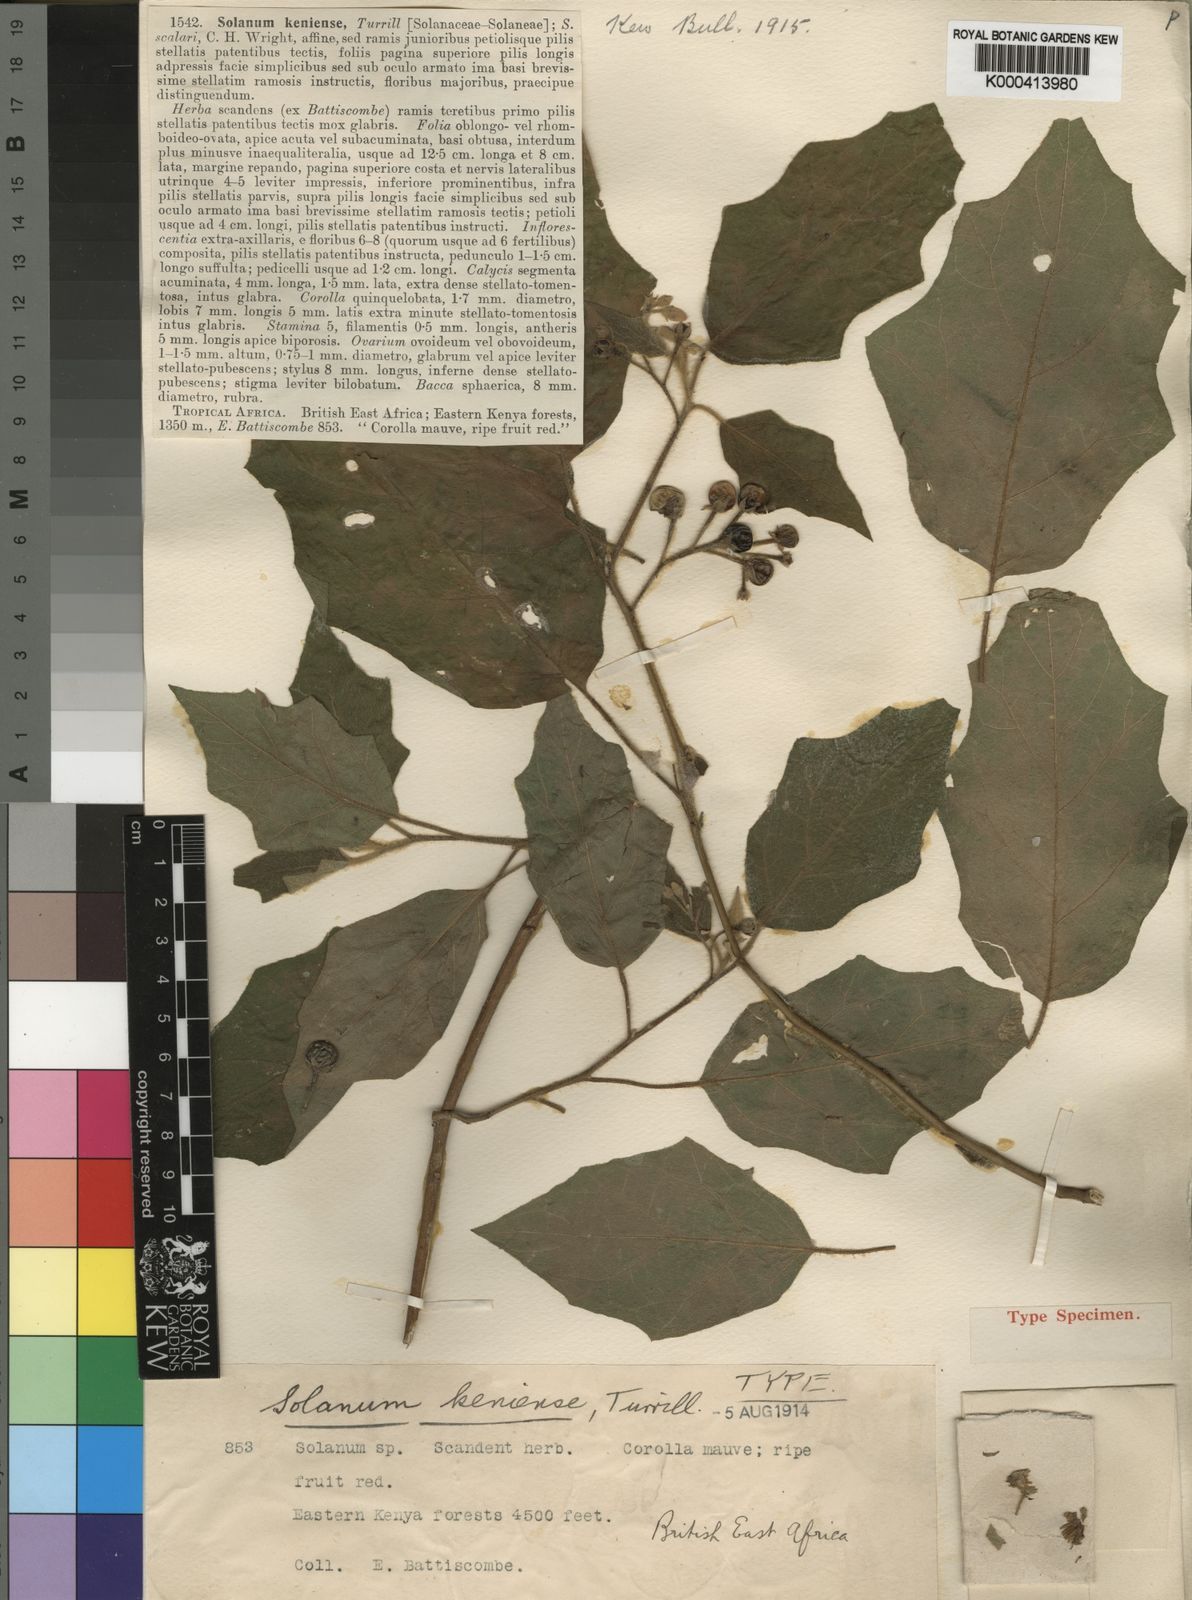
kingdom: Plantae
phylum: Tracheophyta
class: Magnoliopsida
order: Solanales
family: Solanaceae
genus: Solanum
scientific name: Solanum violaceum
